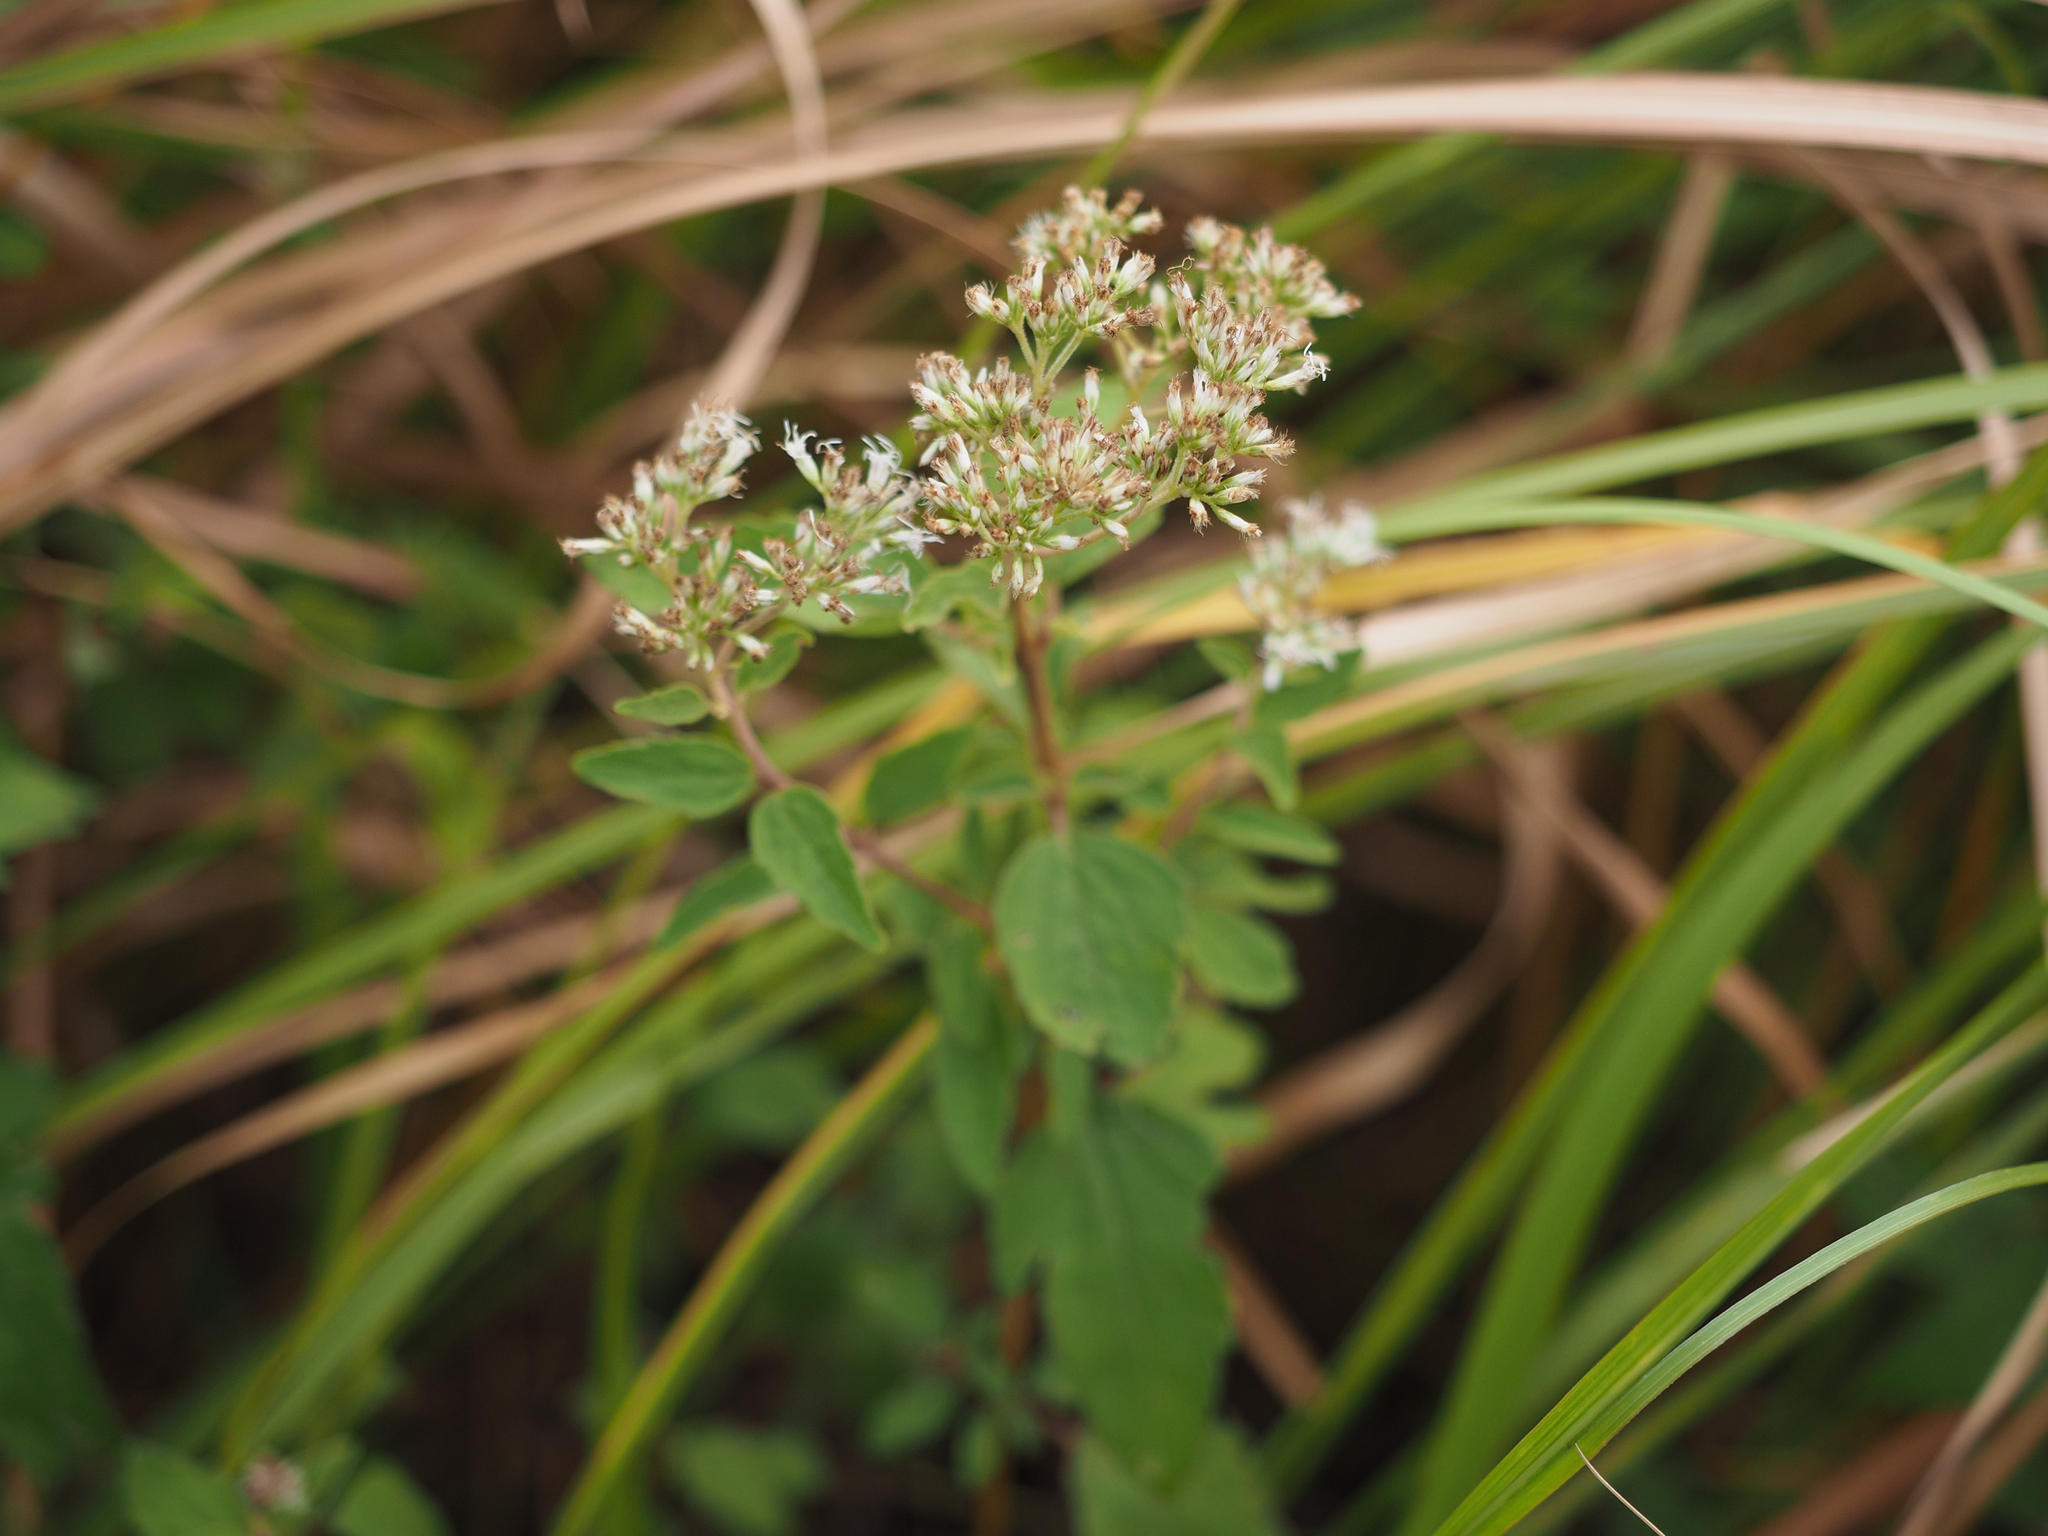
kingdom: Plantae
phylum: Tracheophyta
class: Magnoliopsida
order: Asterales
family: Asteraceae
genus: Eupatorium
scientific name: Eupatorium formosanum
